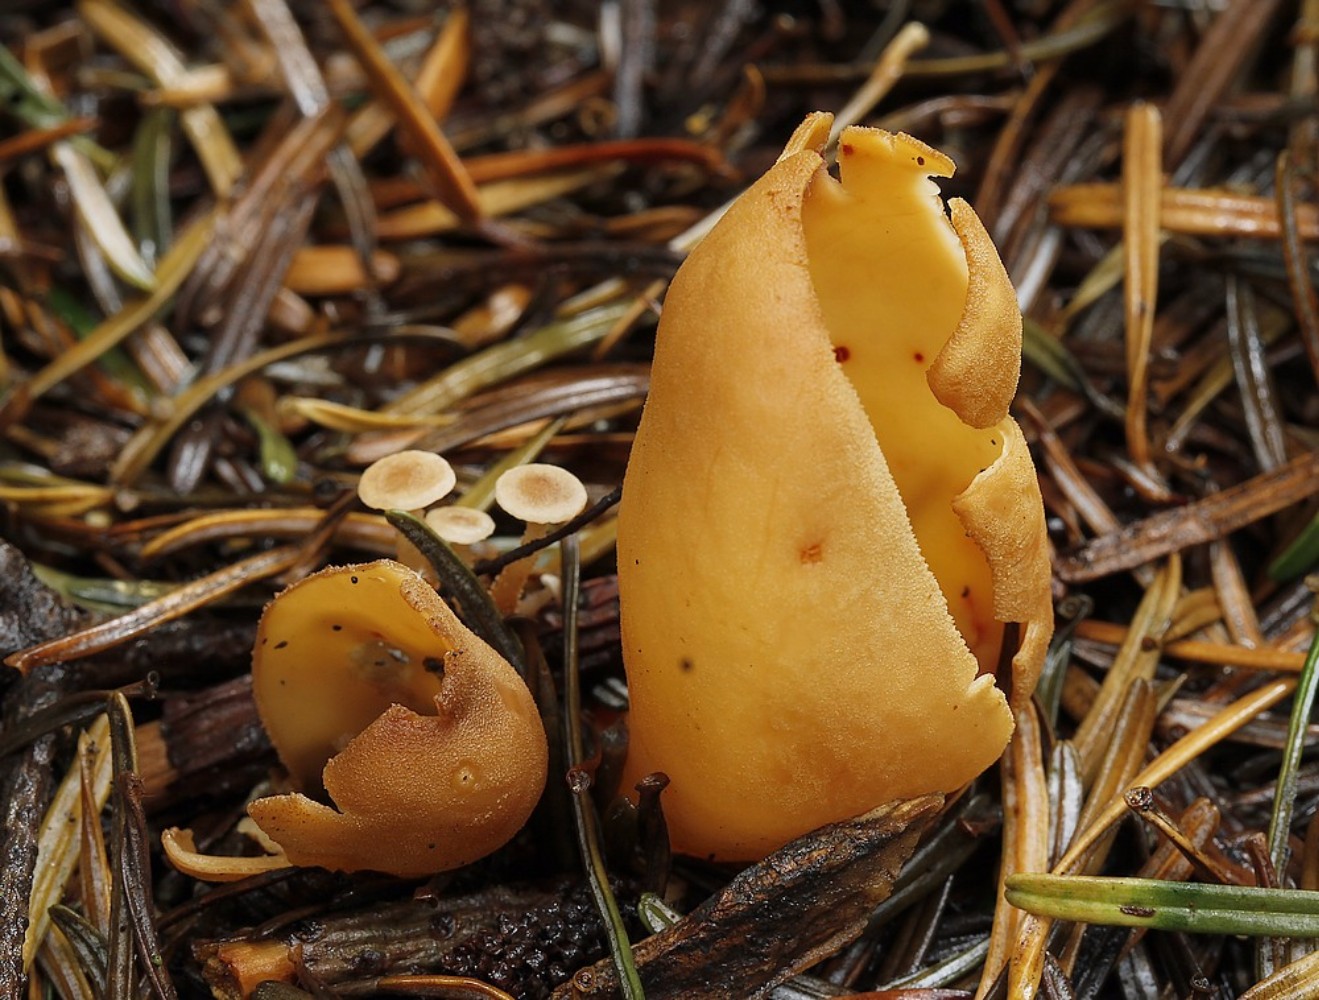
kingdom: Fungi
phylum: Ascomycota
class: Pezizomycetes
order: Pezizales
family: Otideaceae
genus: Otidea
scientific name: Otidea onotica
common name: æsel-ørebæger
